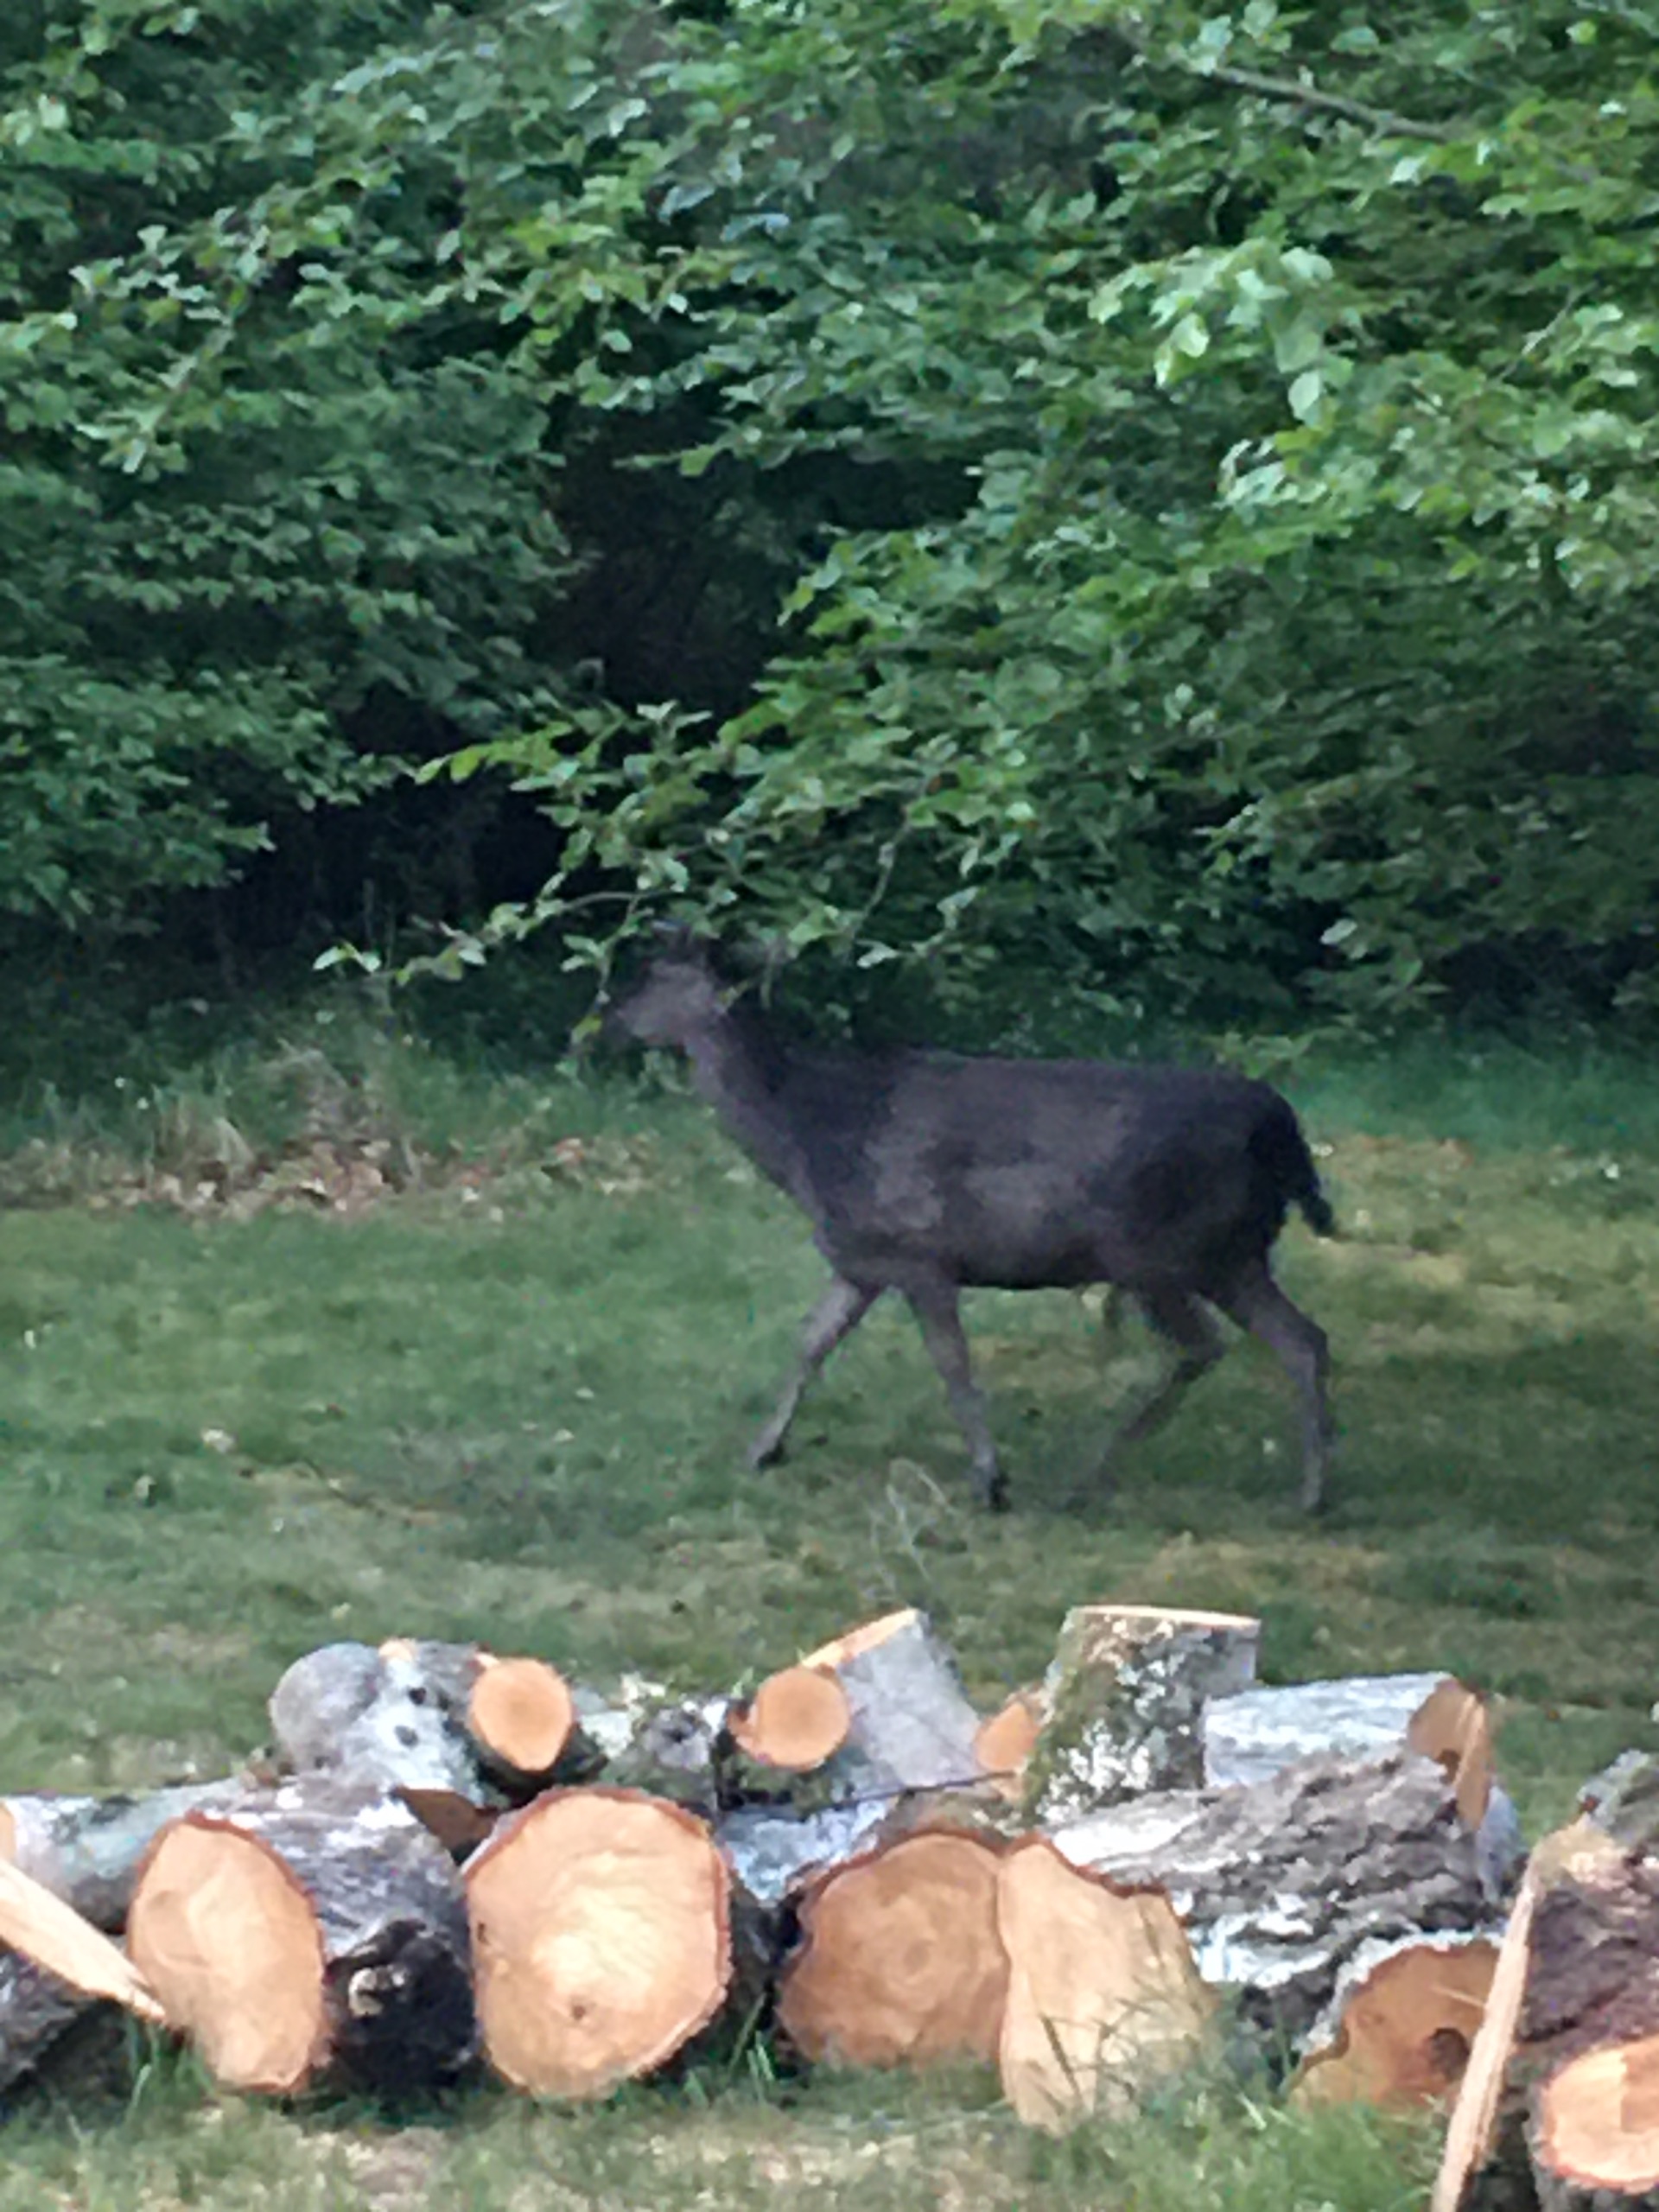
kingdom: Animalia
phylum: Chordata
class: Mammalia
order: Artiodactyla
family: Cervidae
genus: Dama
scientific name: Dama dama
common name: Dådyr
